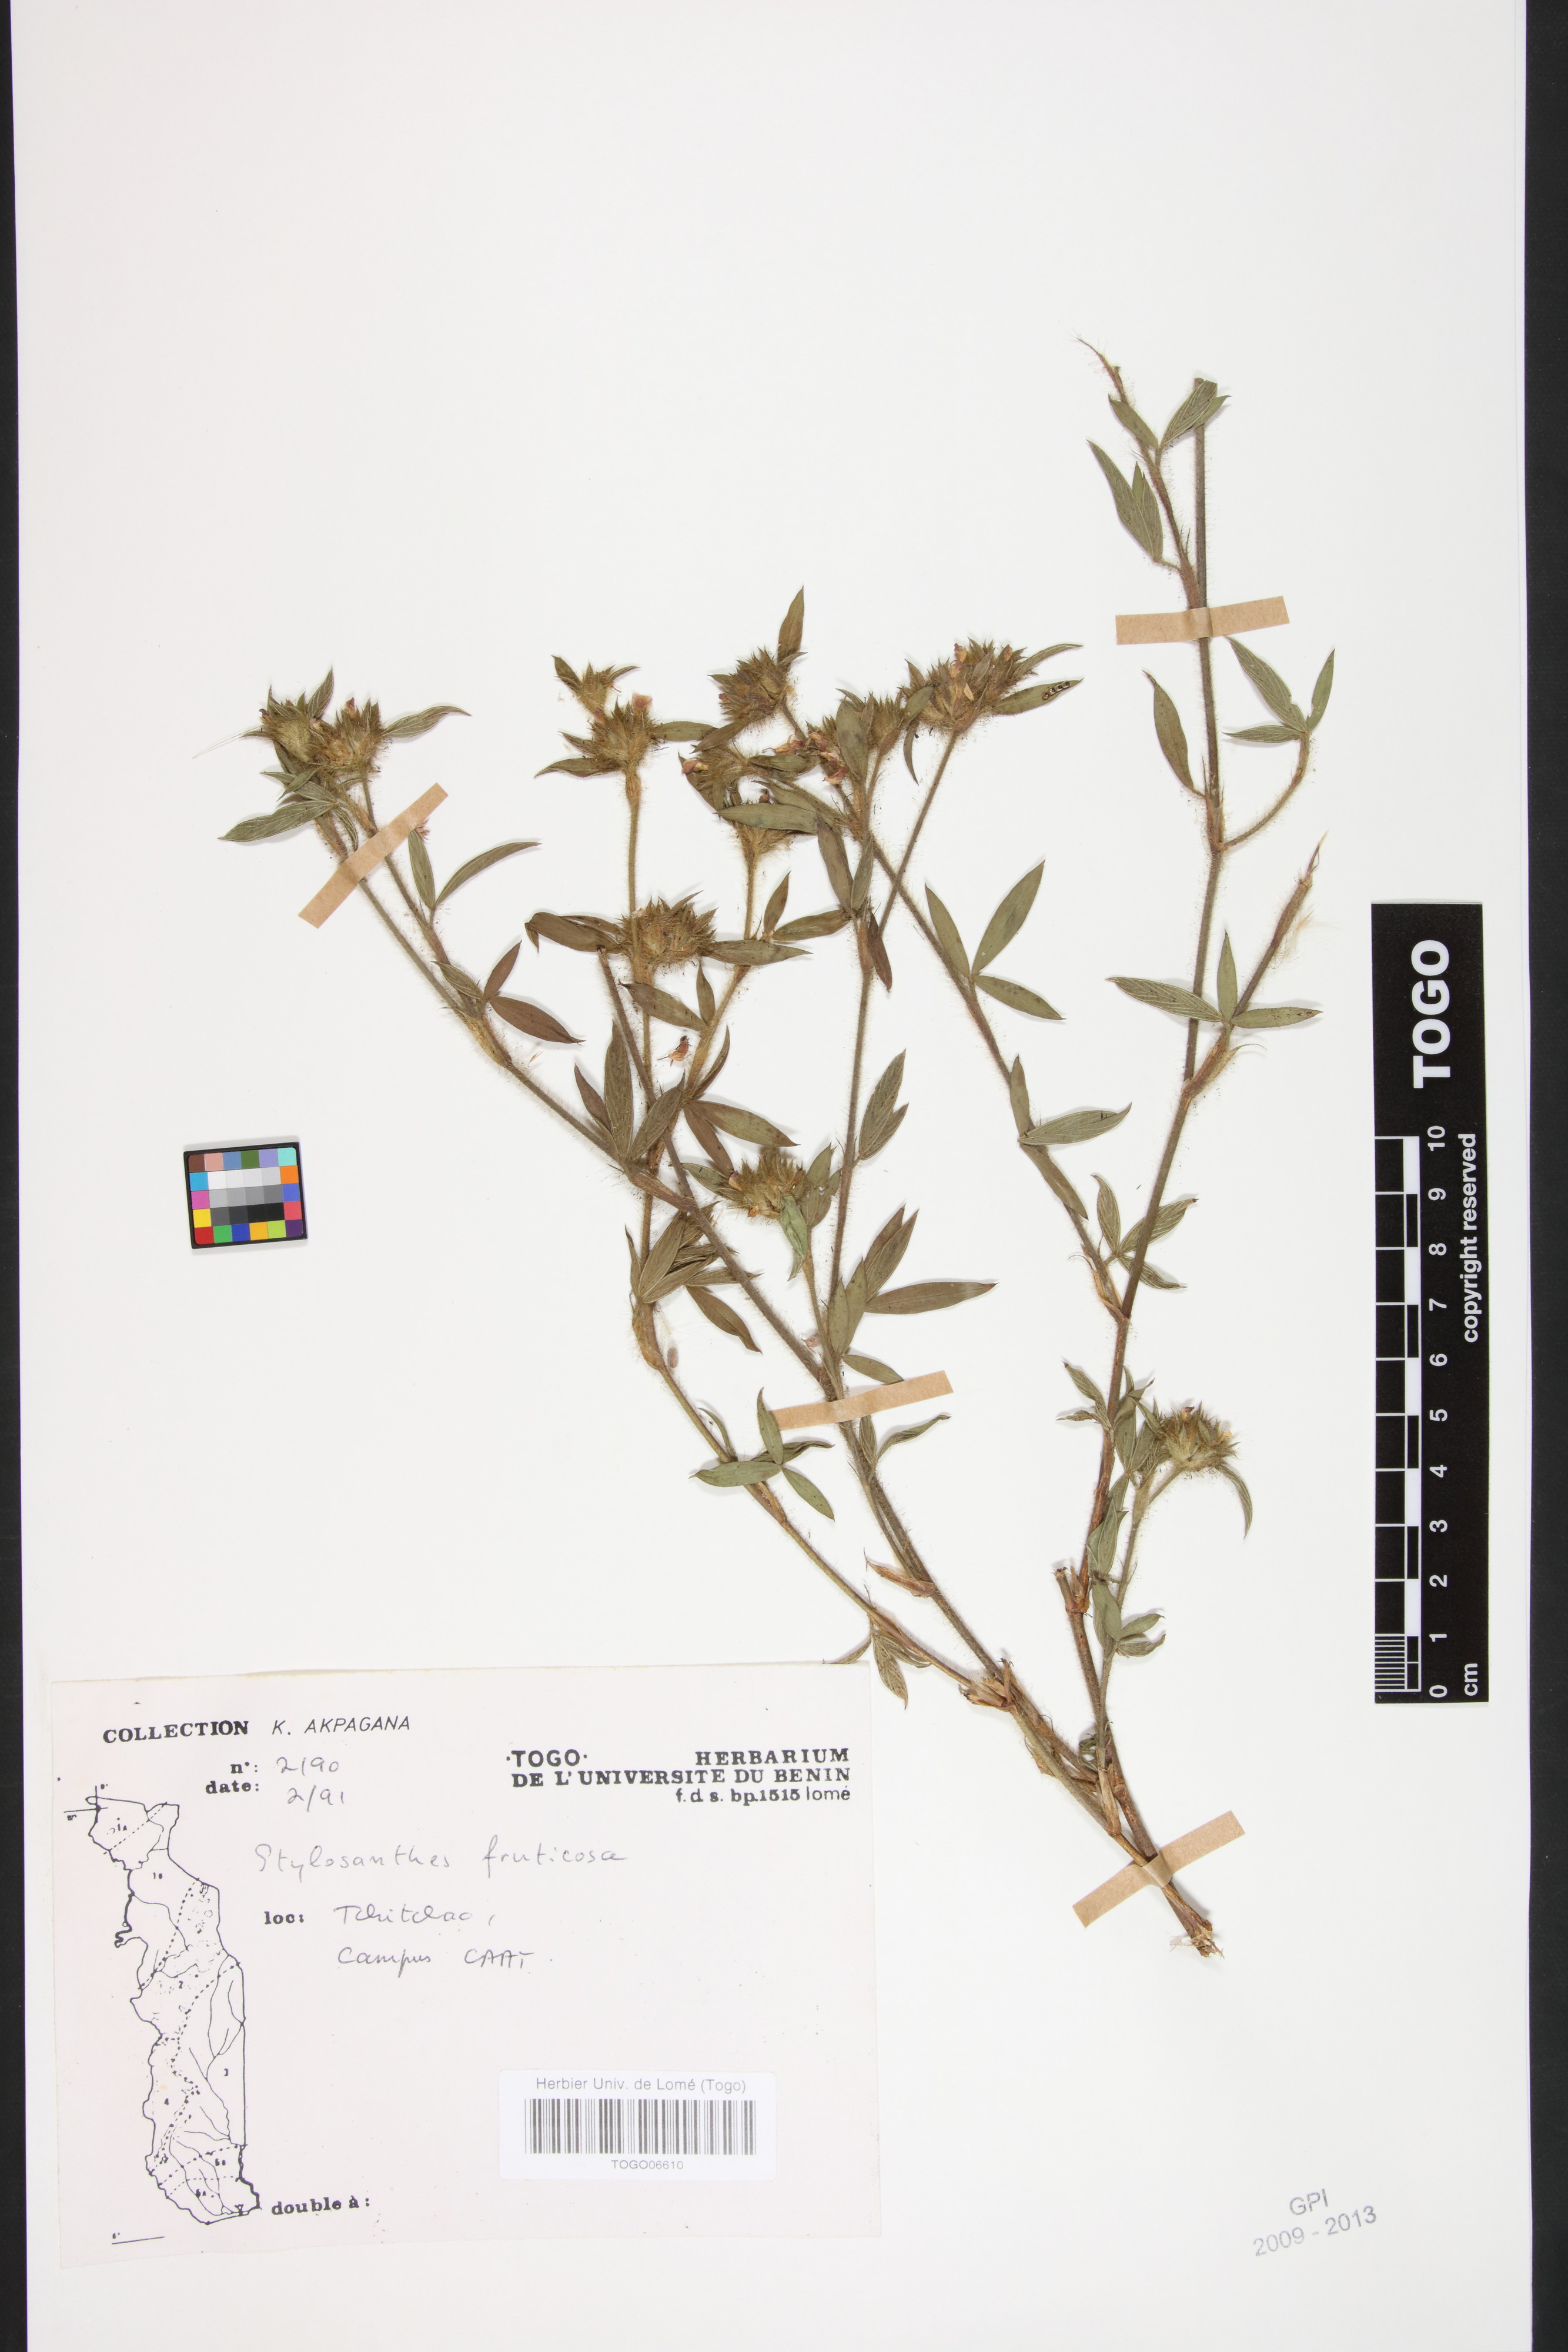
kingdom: Plantae
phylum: Tracheophyta
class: Magnoliopsida
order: Fabales
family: Fabaceae
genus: Stylosanthes
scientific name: Stylosanthes fruticosa
